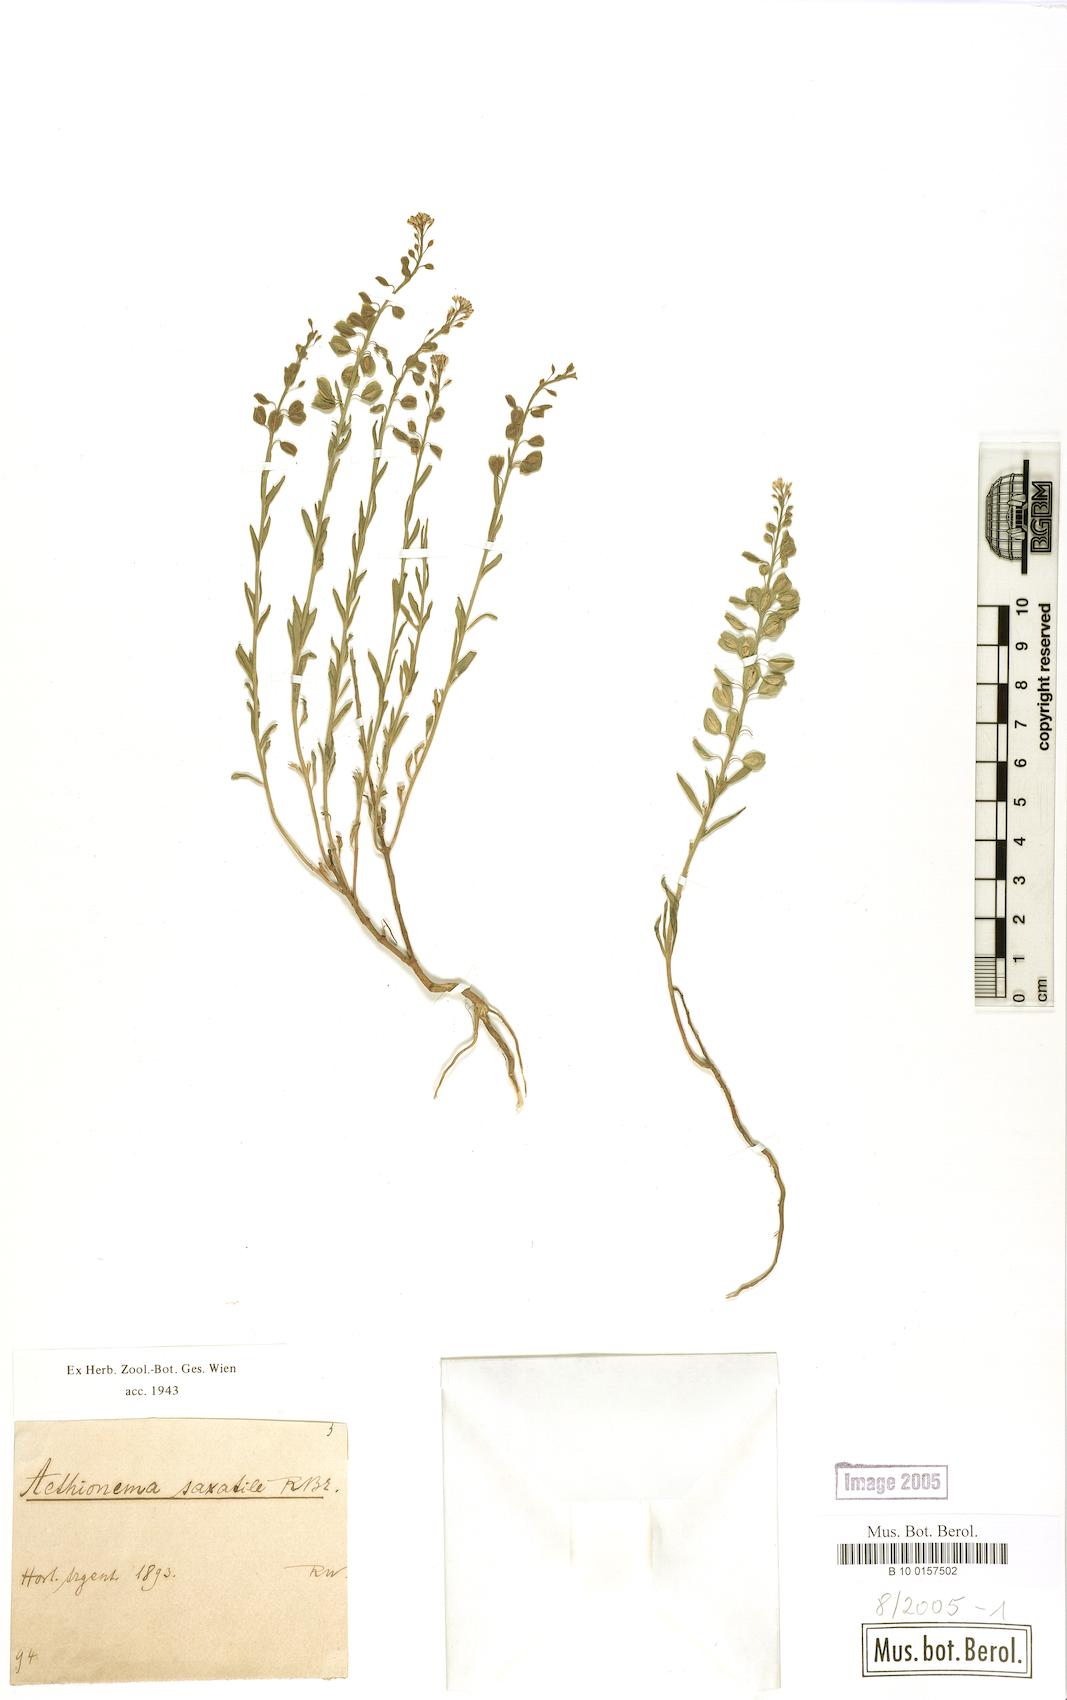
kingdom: Plantae
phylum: Tracheophyta
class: Magnoliopsida
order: Brassicales
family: Brassicaceae
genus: Aethionema
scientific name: Aethionema saxatile
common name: Burnt candytuft
